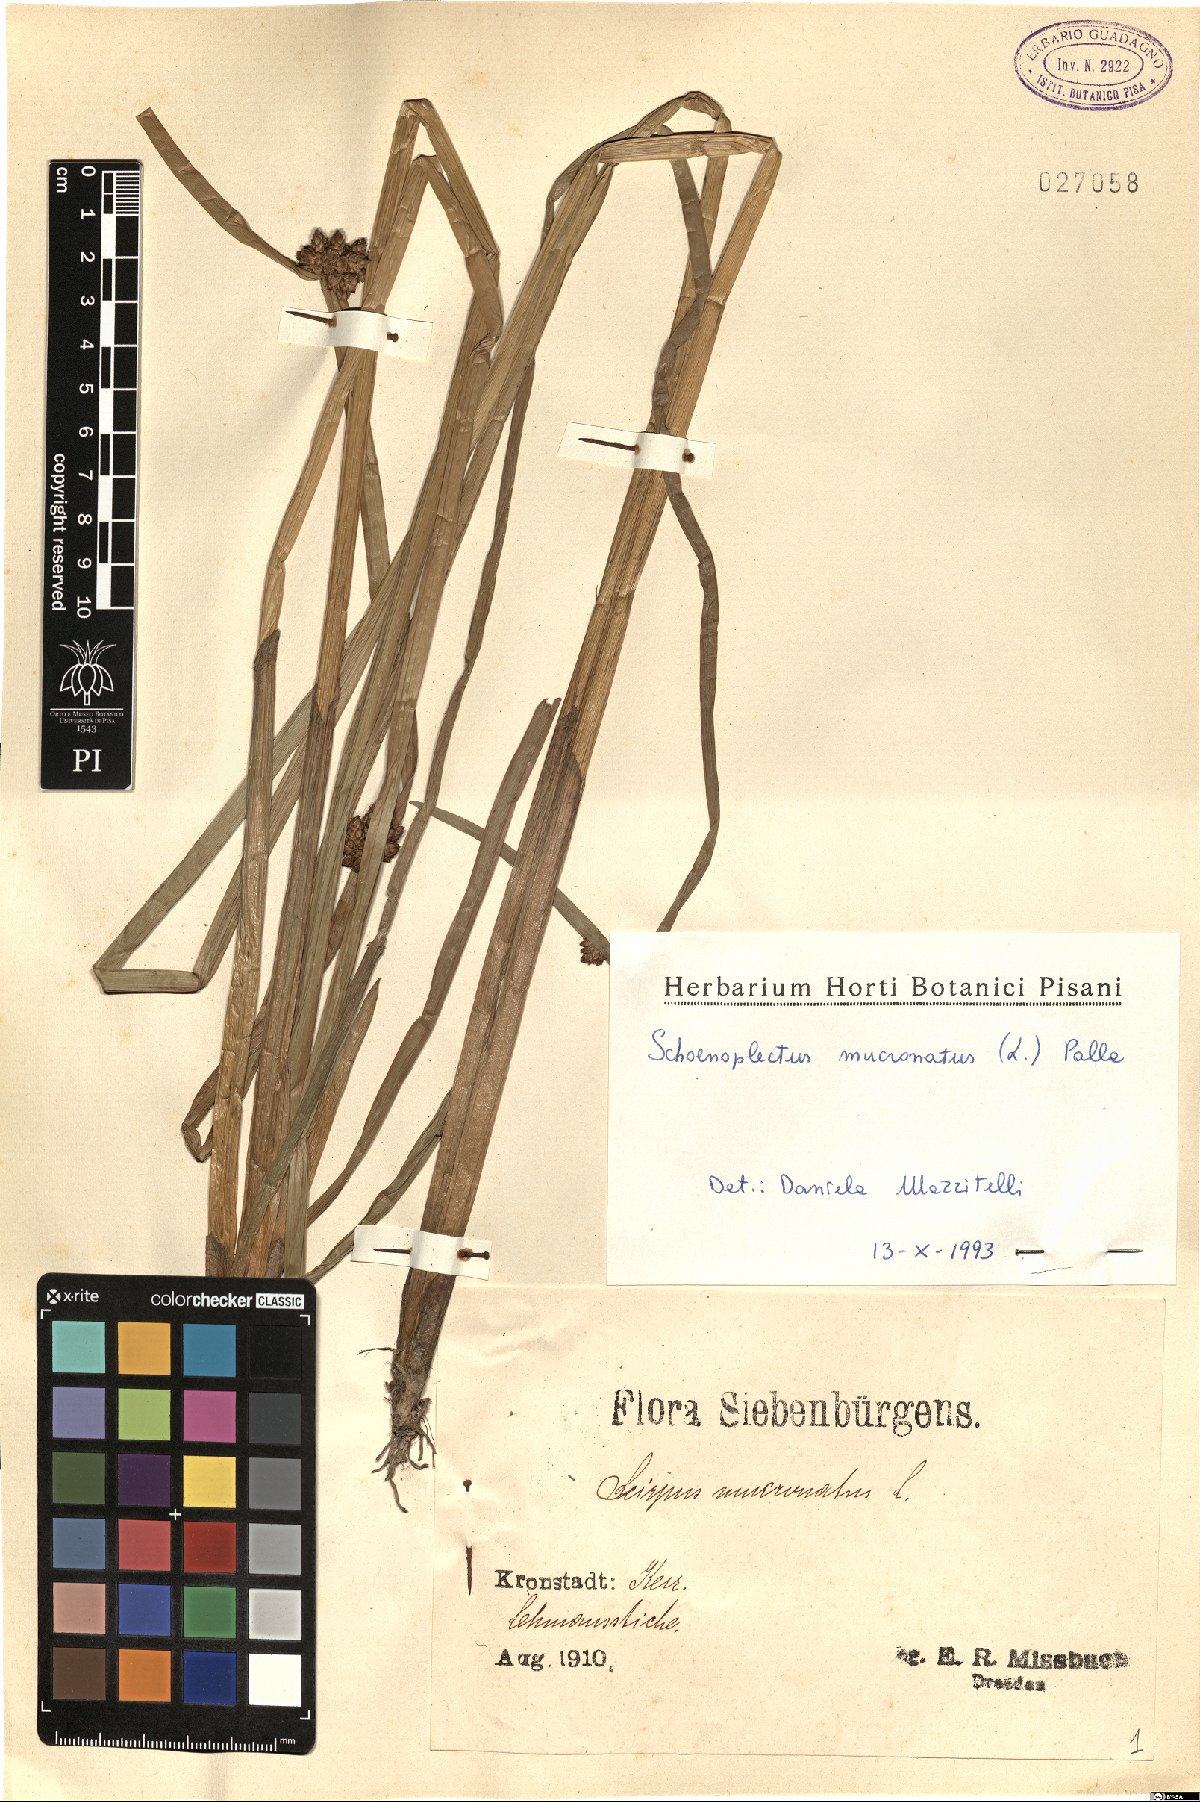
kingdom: Plantae
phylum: Tracheophyta
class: Liliopsida
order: Poales
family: Cyperaceae
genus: Schoenoplectiella
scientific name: Schoenoplectiella mucronata
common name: Bog bulrush
